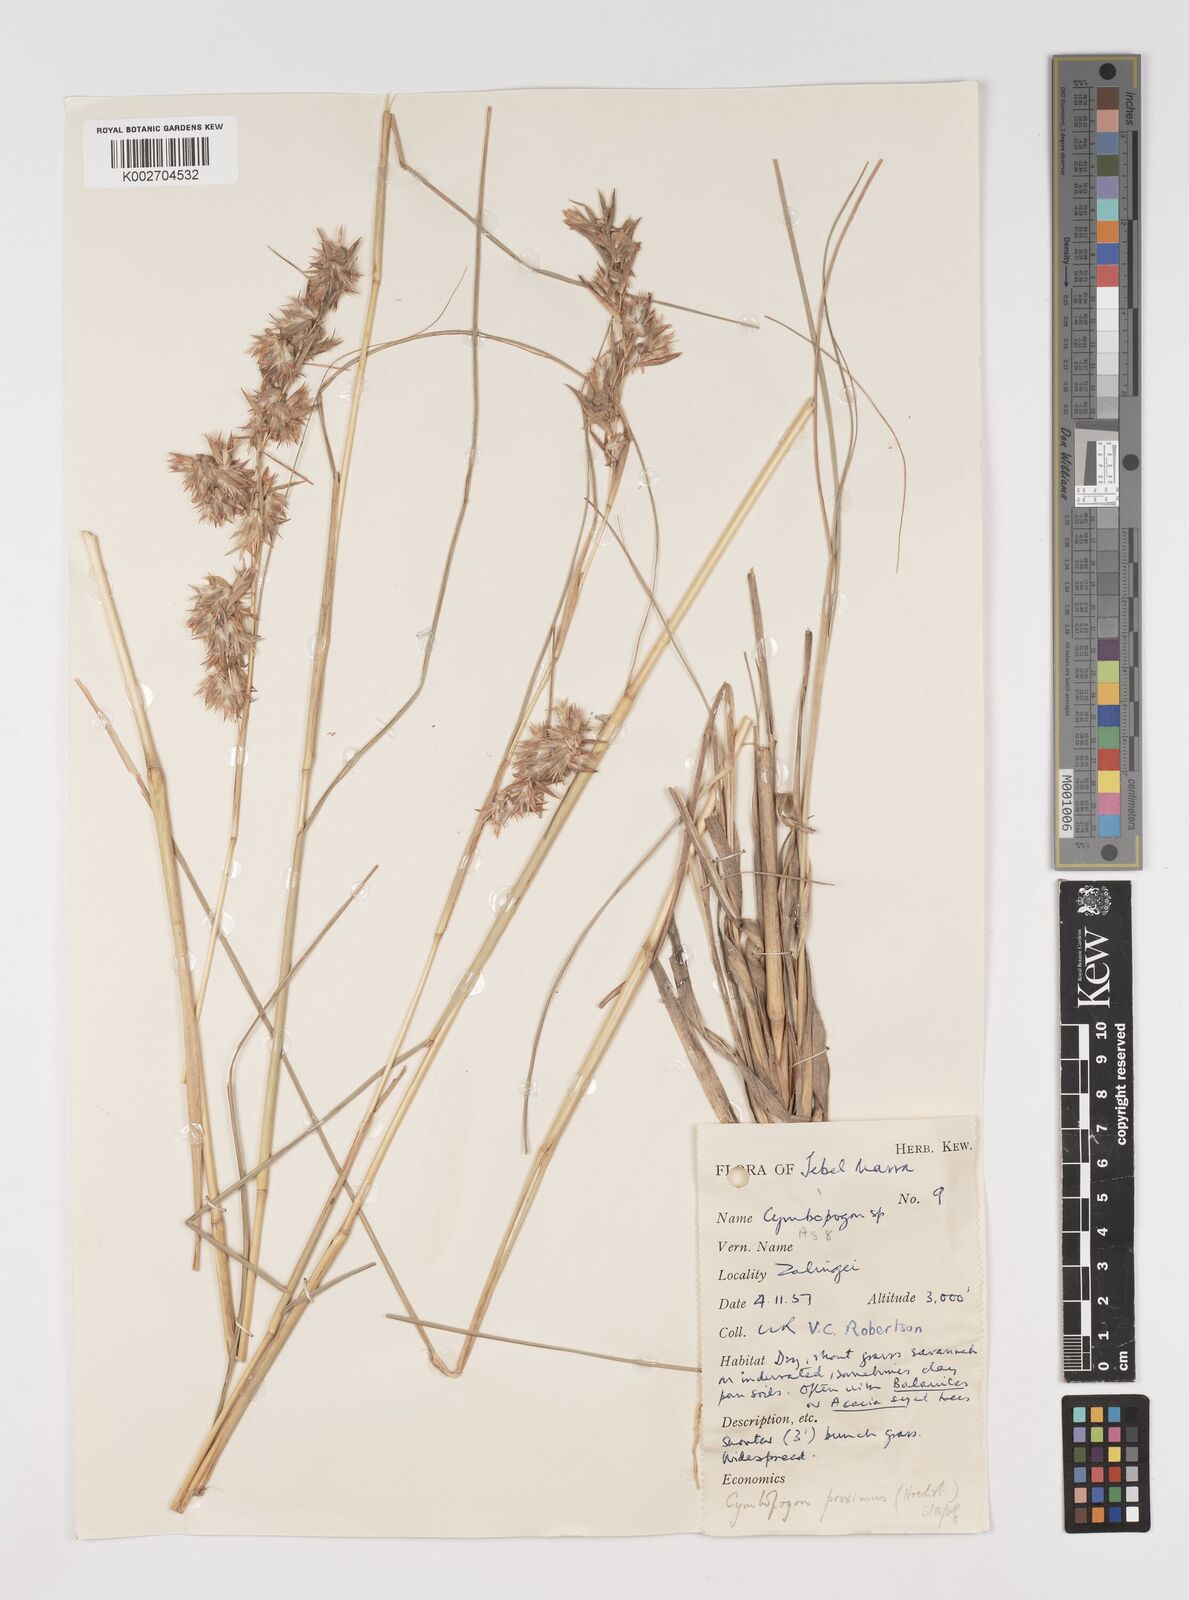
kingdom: Plantae
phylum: Tracheophyta
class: Liliopsida
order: Poales
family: Poaceae
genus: Cymbopogon
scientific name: Cymbopogon schoenanthus
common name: Geranium grass
